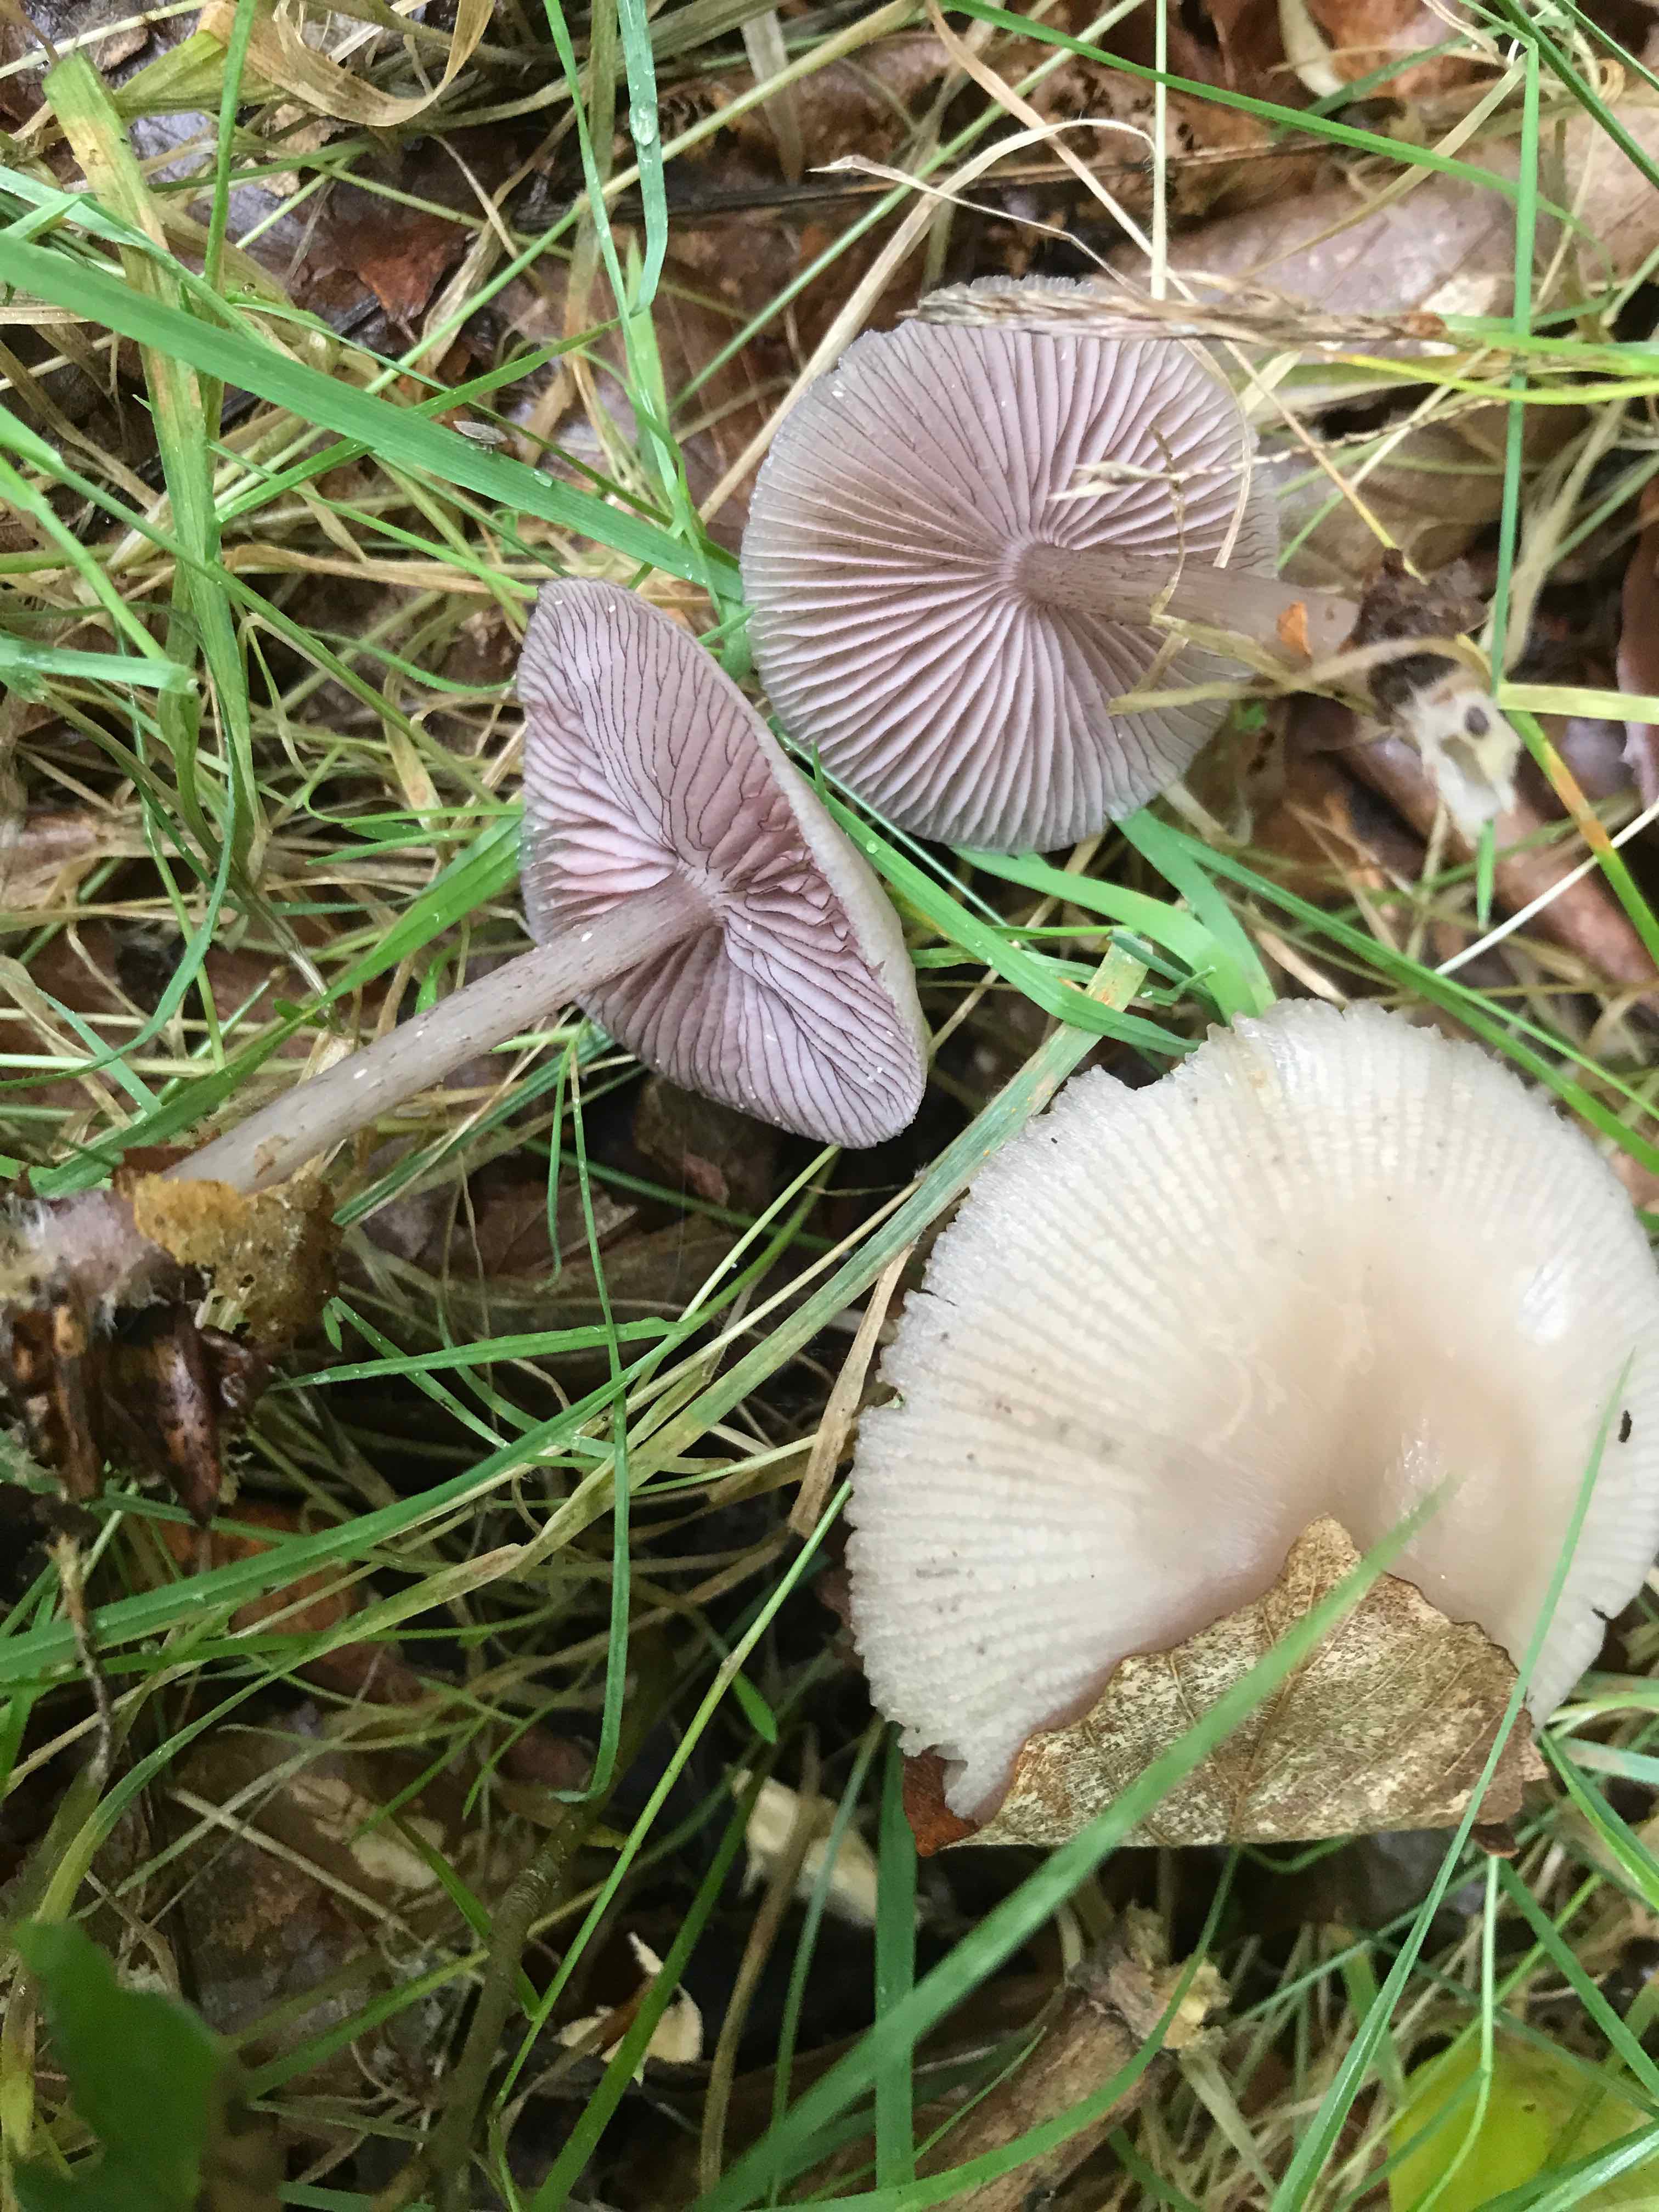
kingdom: Fungi
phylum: Basidiomycota
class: Agaricomycetes
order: Agaricales
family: Mycenaceae
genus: Mycena
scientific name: Mycena pelianthina
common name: mørkbladet huesvamp
